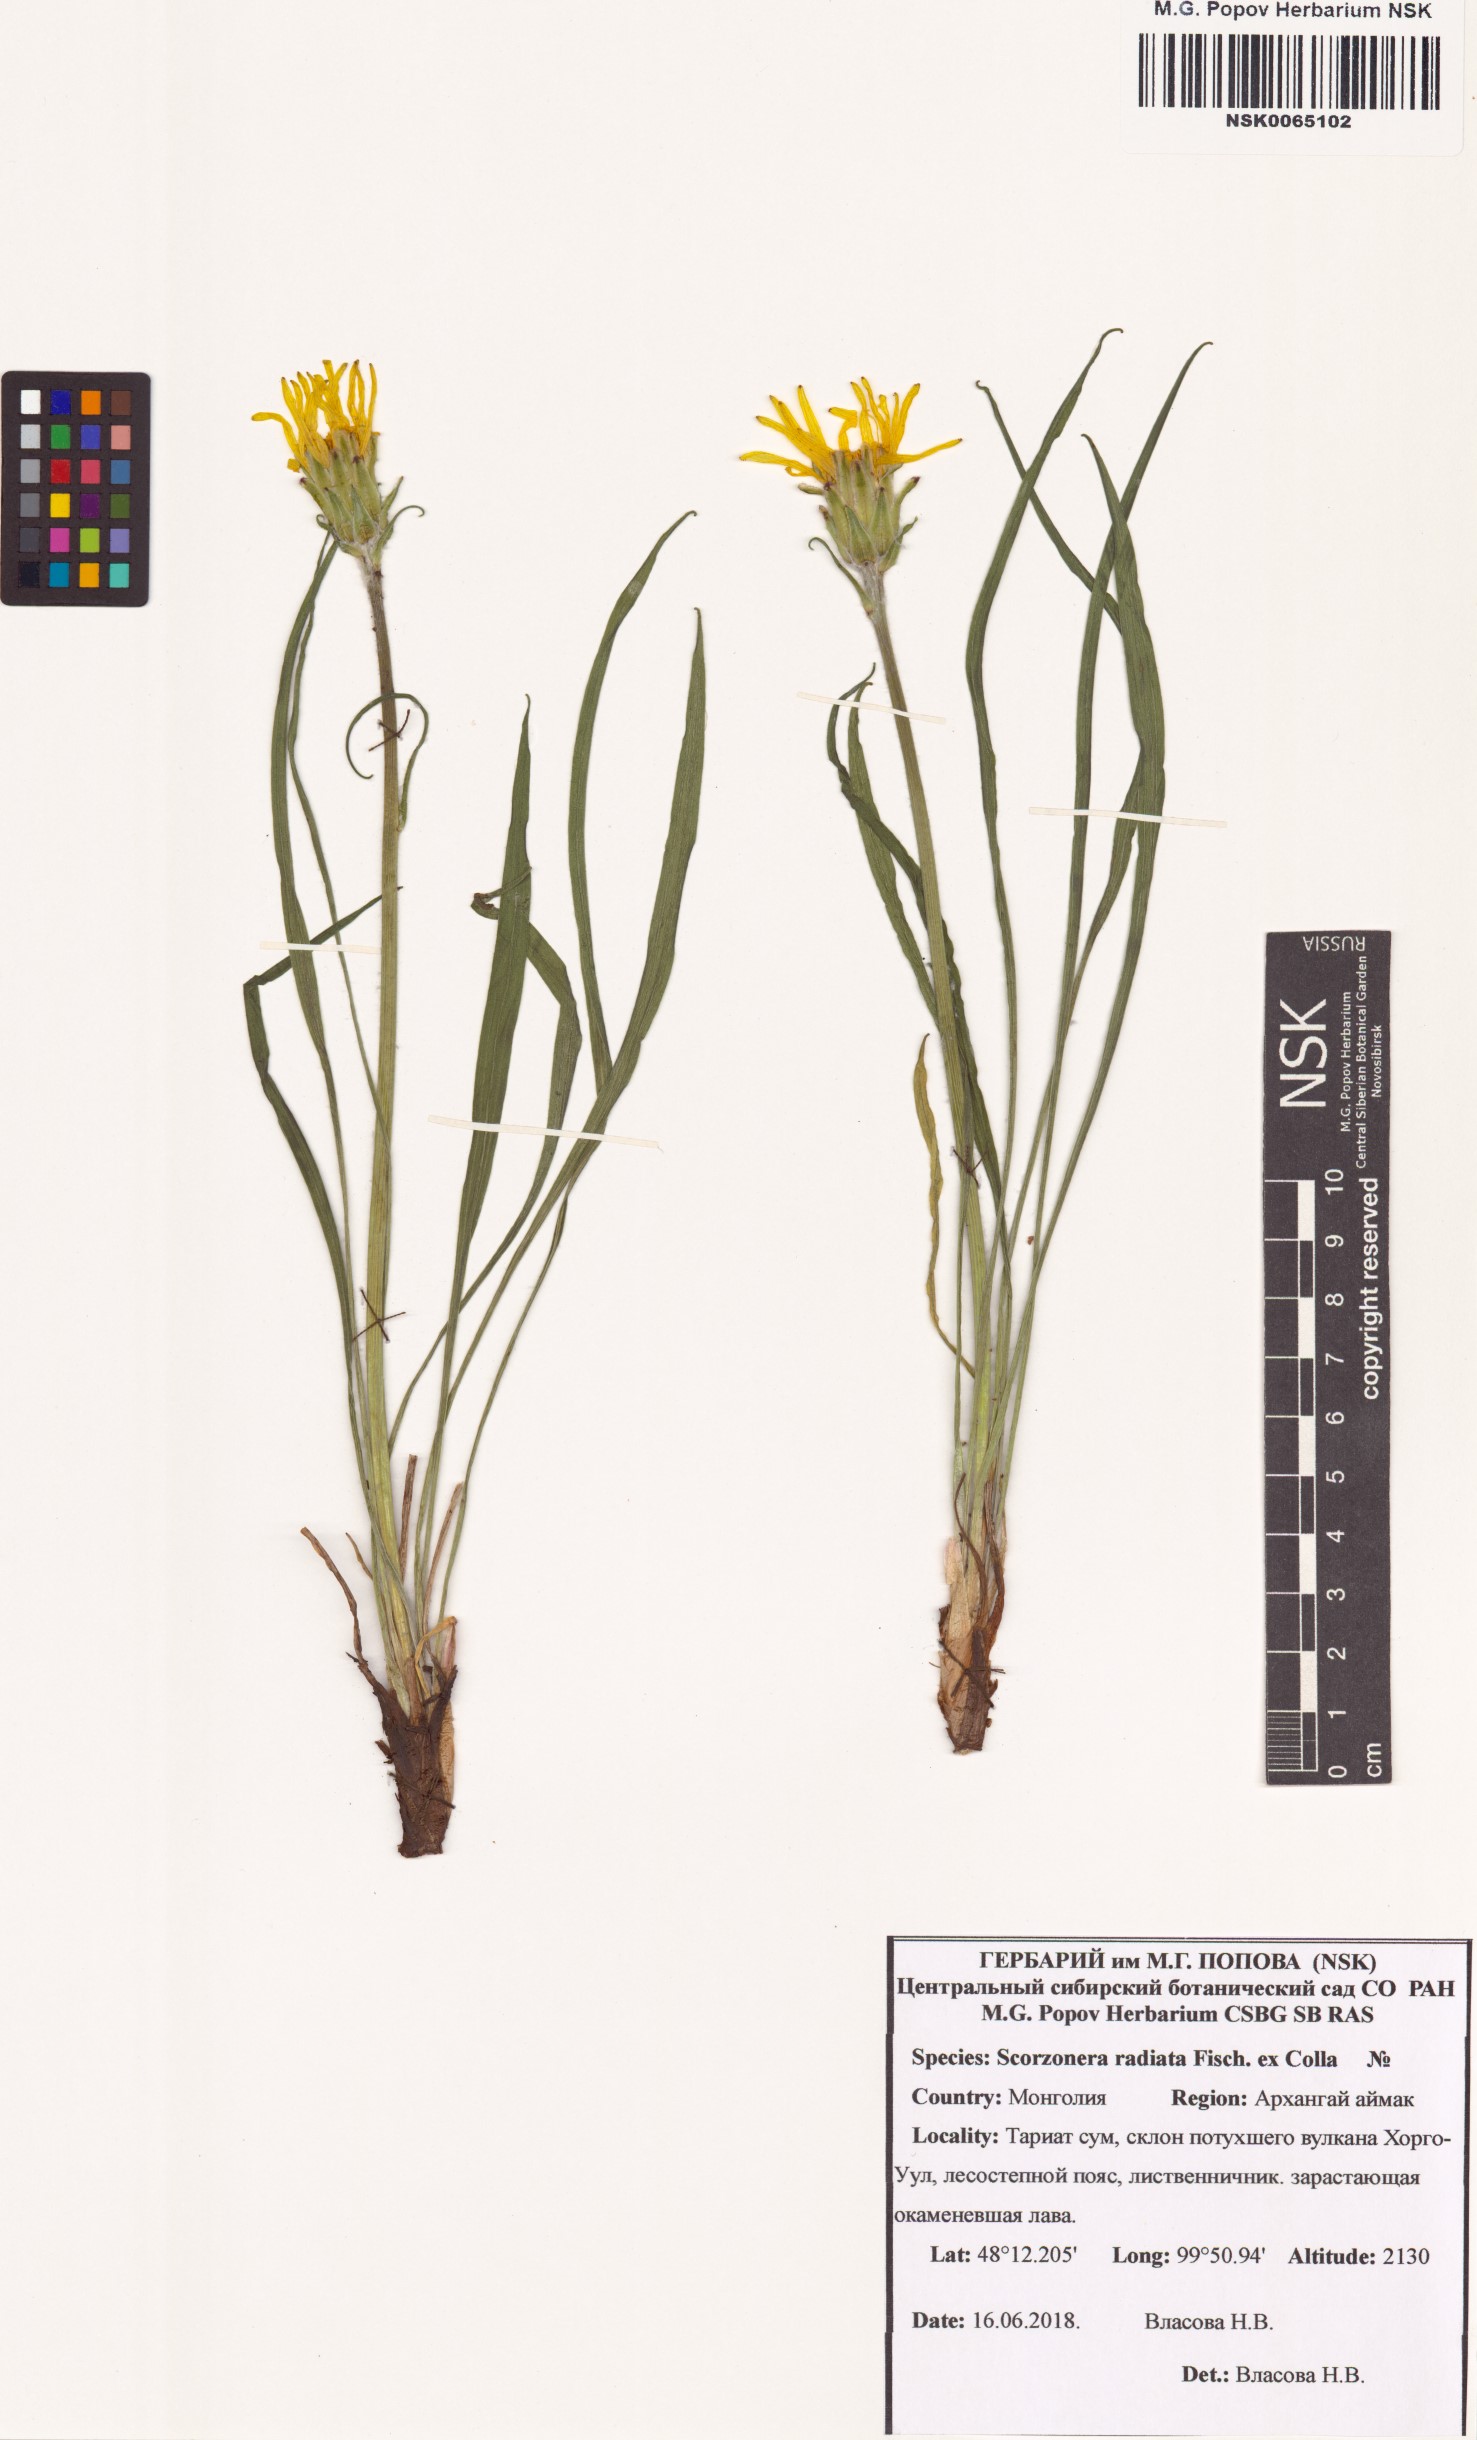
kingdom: Plantae
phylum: Tracheophyta
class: Magnoliopsida
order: Asterales
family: Asteraceae
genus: Scorzonera
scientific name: Scorzonera radiata
